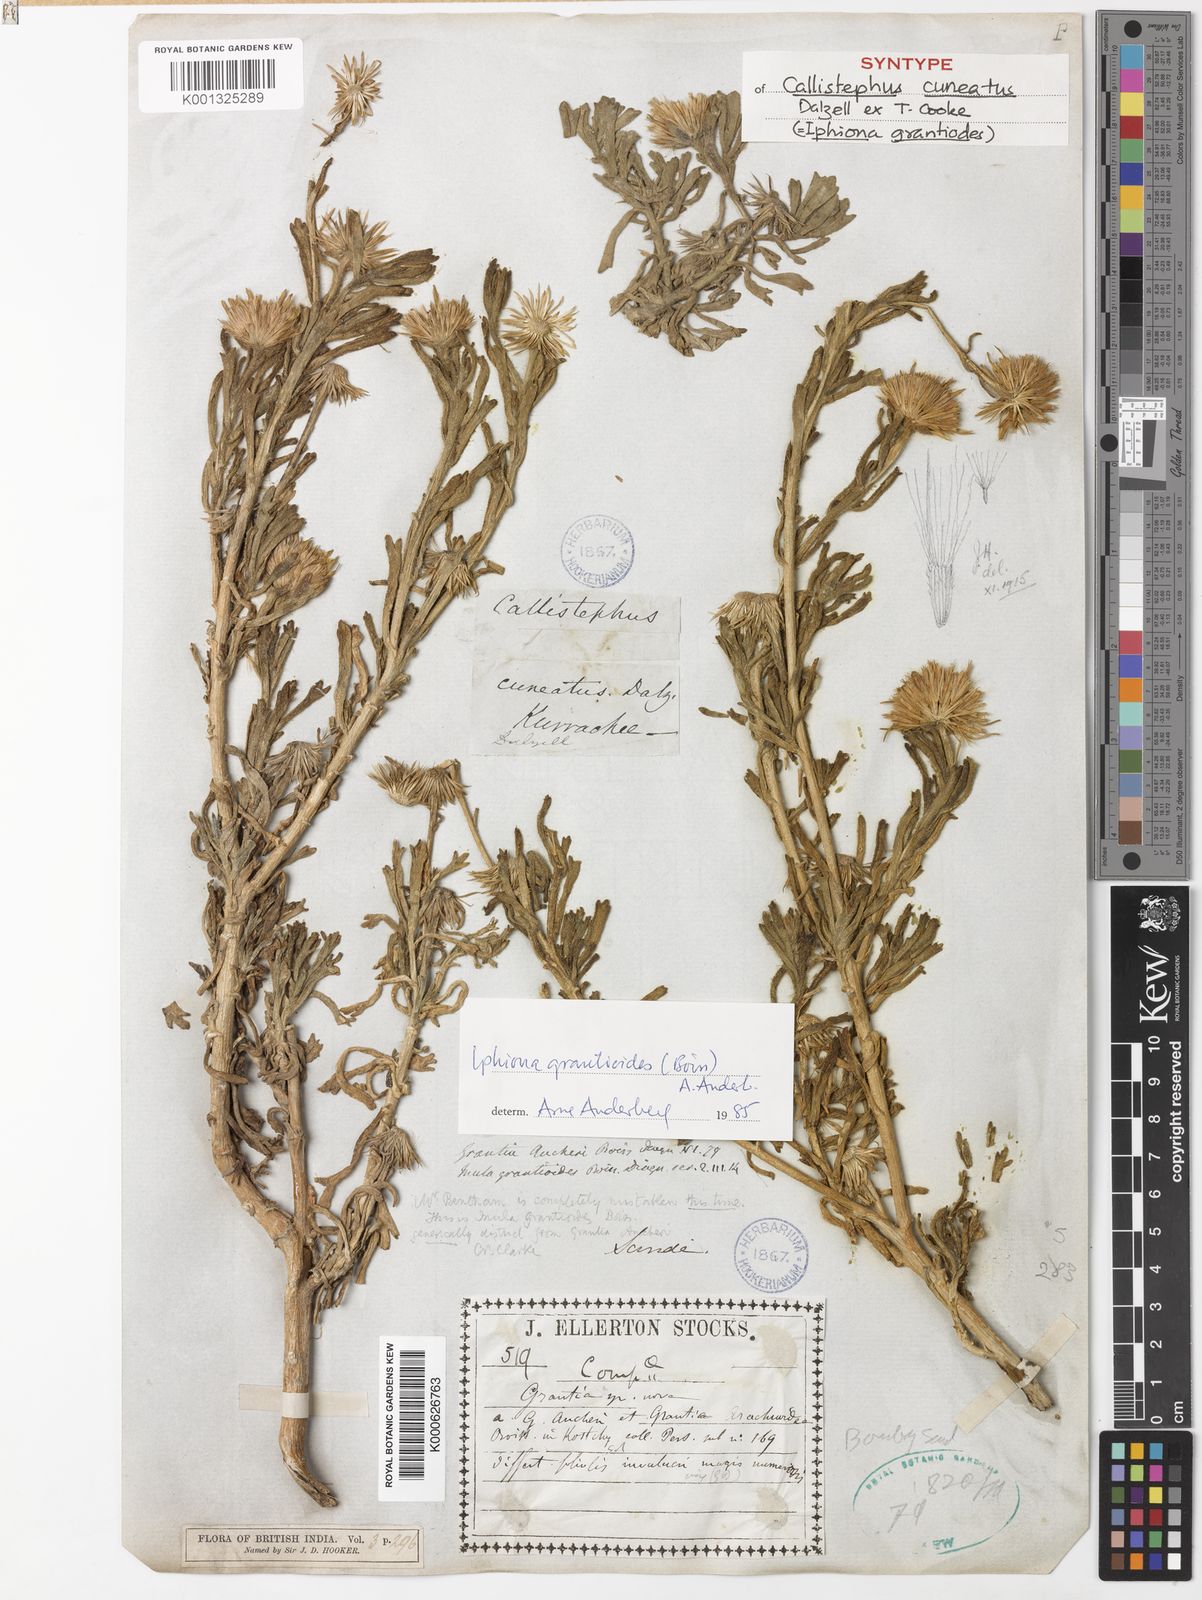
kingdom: Plantae
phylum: Tracheophyta
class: Magnoliopsida
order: Asterales
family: Asteraceae
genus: Iphiona
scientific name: Iphiona grantioides
